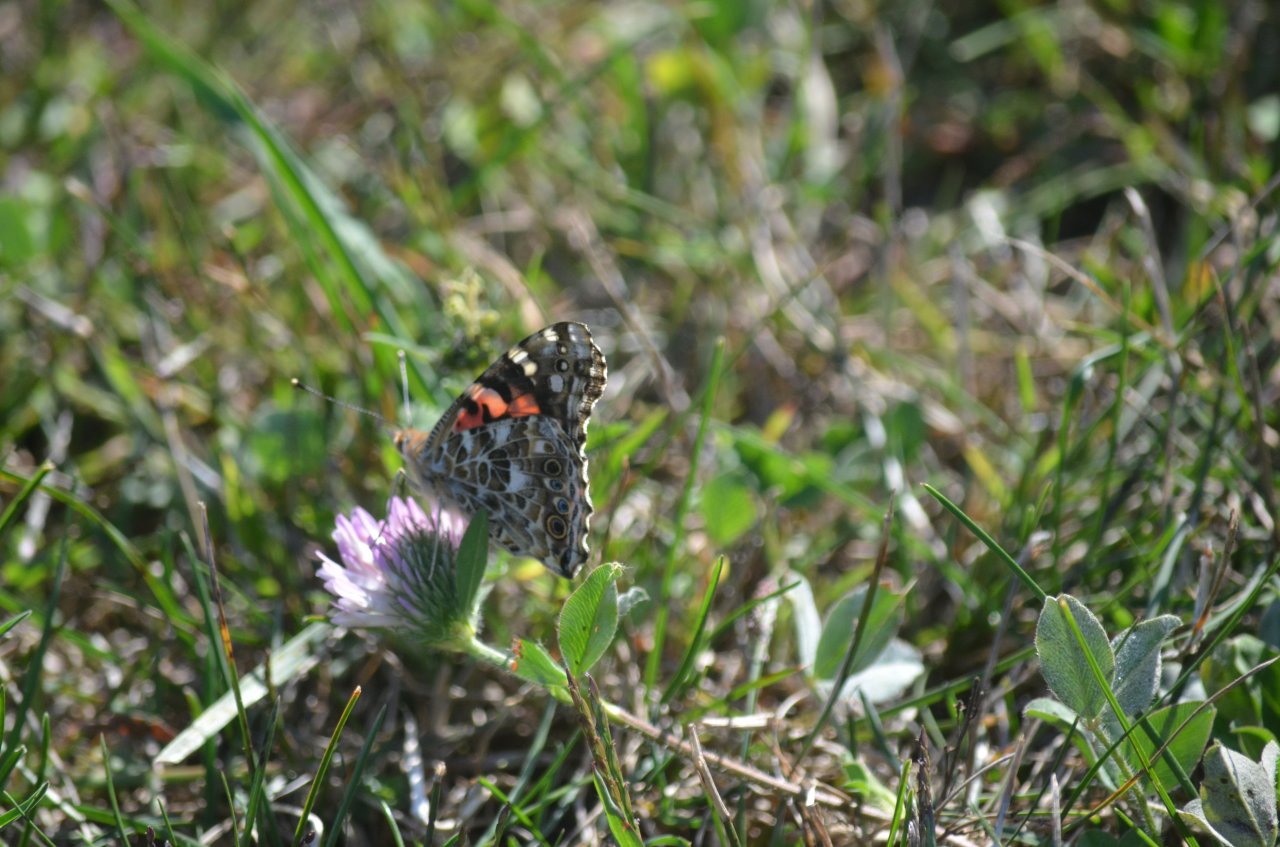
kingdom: Animalia
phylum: Arthropoda
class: Insecta
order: Lepidoptera
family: Nymphalidae
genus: Vanessa
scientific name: Vanessa cardui
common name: Painted Lady
